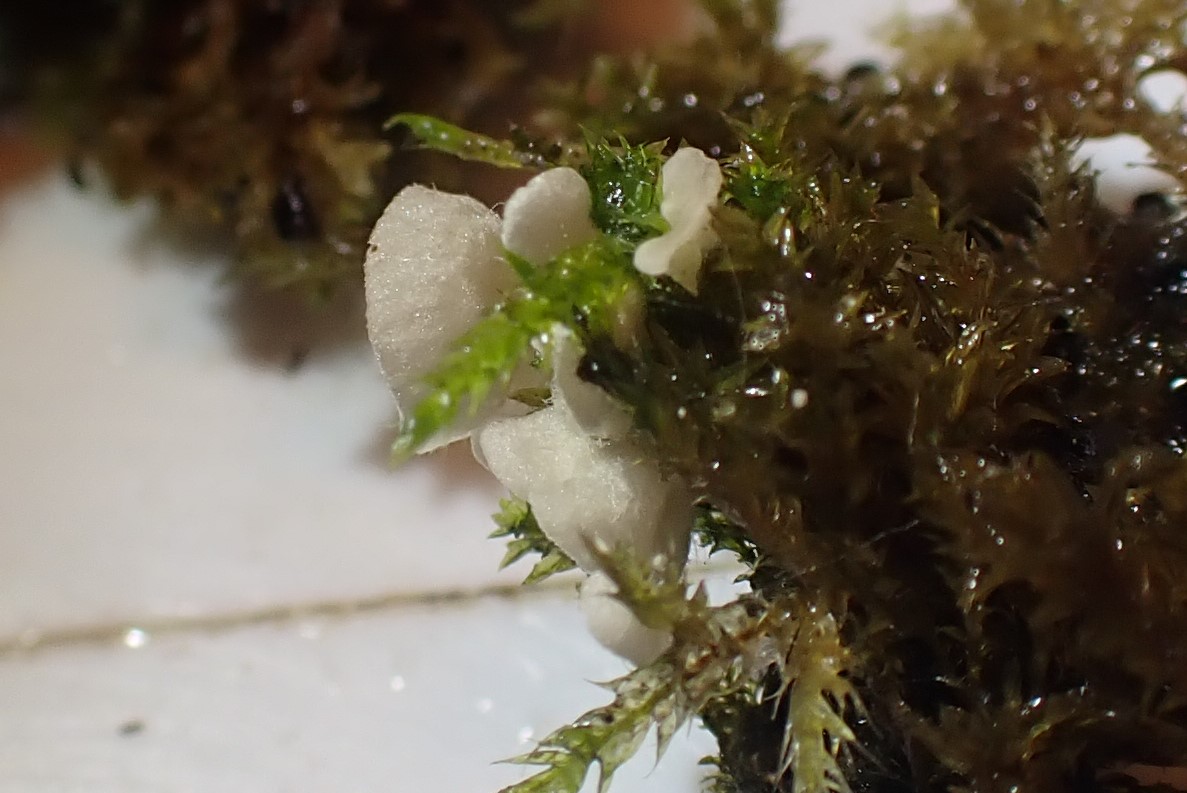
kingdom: Fungi
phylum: Basidiomycota
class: Agaricomycetes
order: Agaricales
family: Hygrophoraceae
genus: Arrhenia
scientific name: Arrhenia retiruga
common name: lille fontænehat
